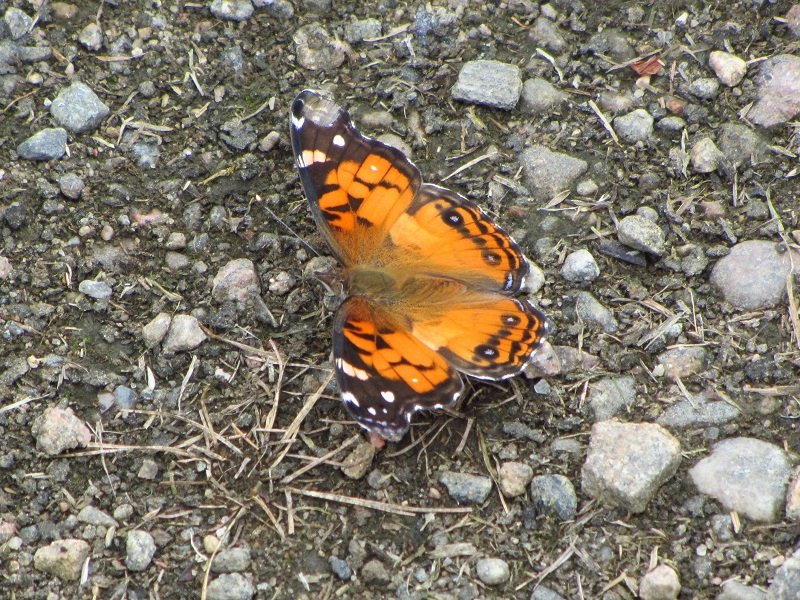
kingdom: Animalia
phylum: Arthropoda
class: Insecta
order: Lepidoptera
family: Nymphalidae
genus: Vanessa
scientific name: Vanessa virginiensis
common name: American Lady
